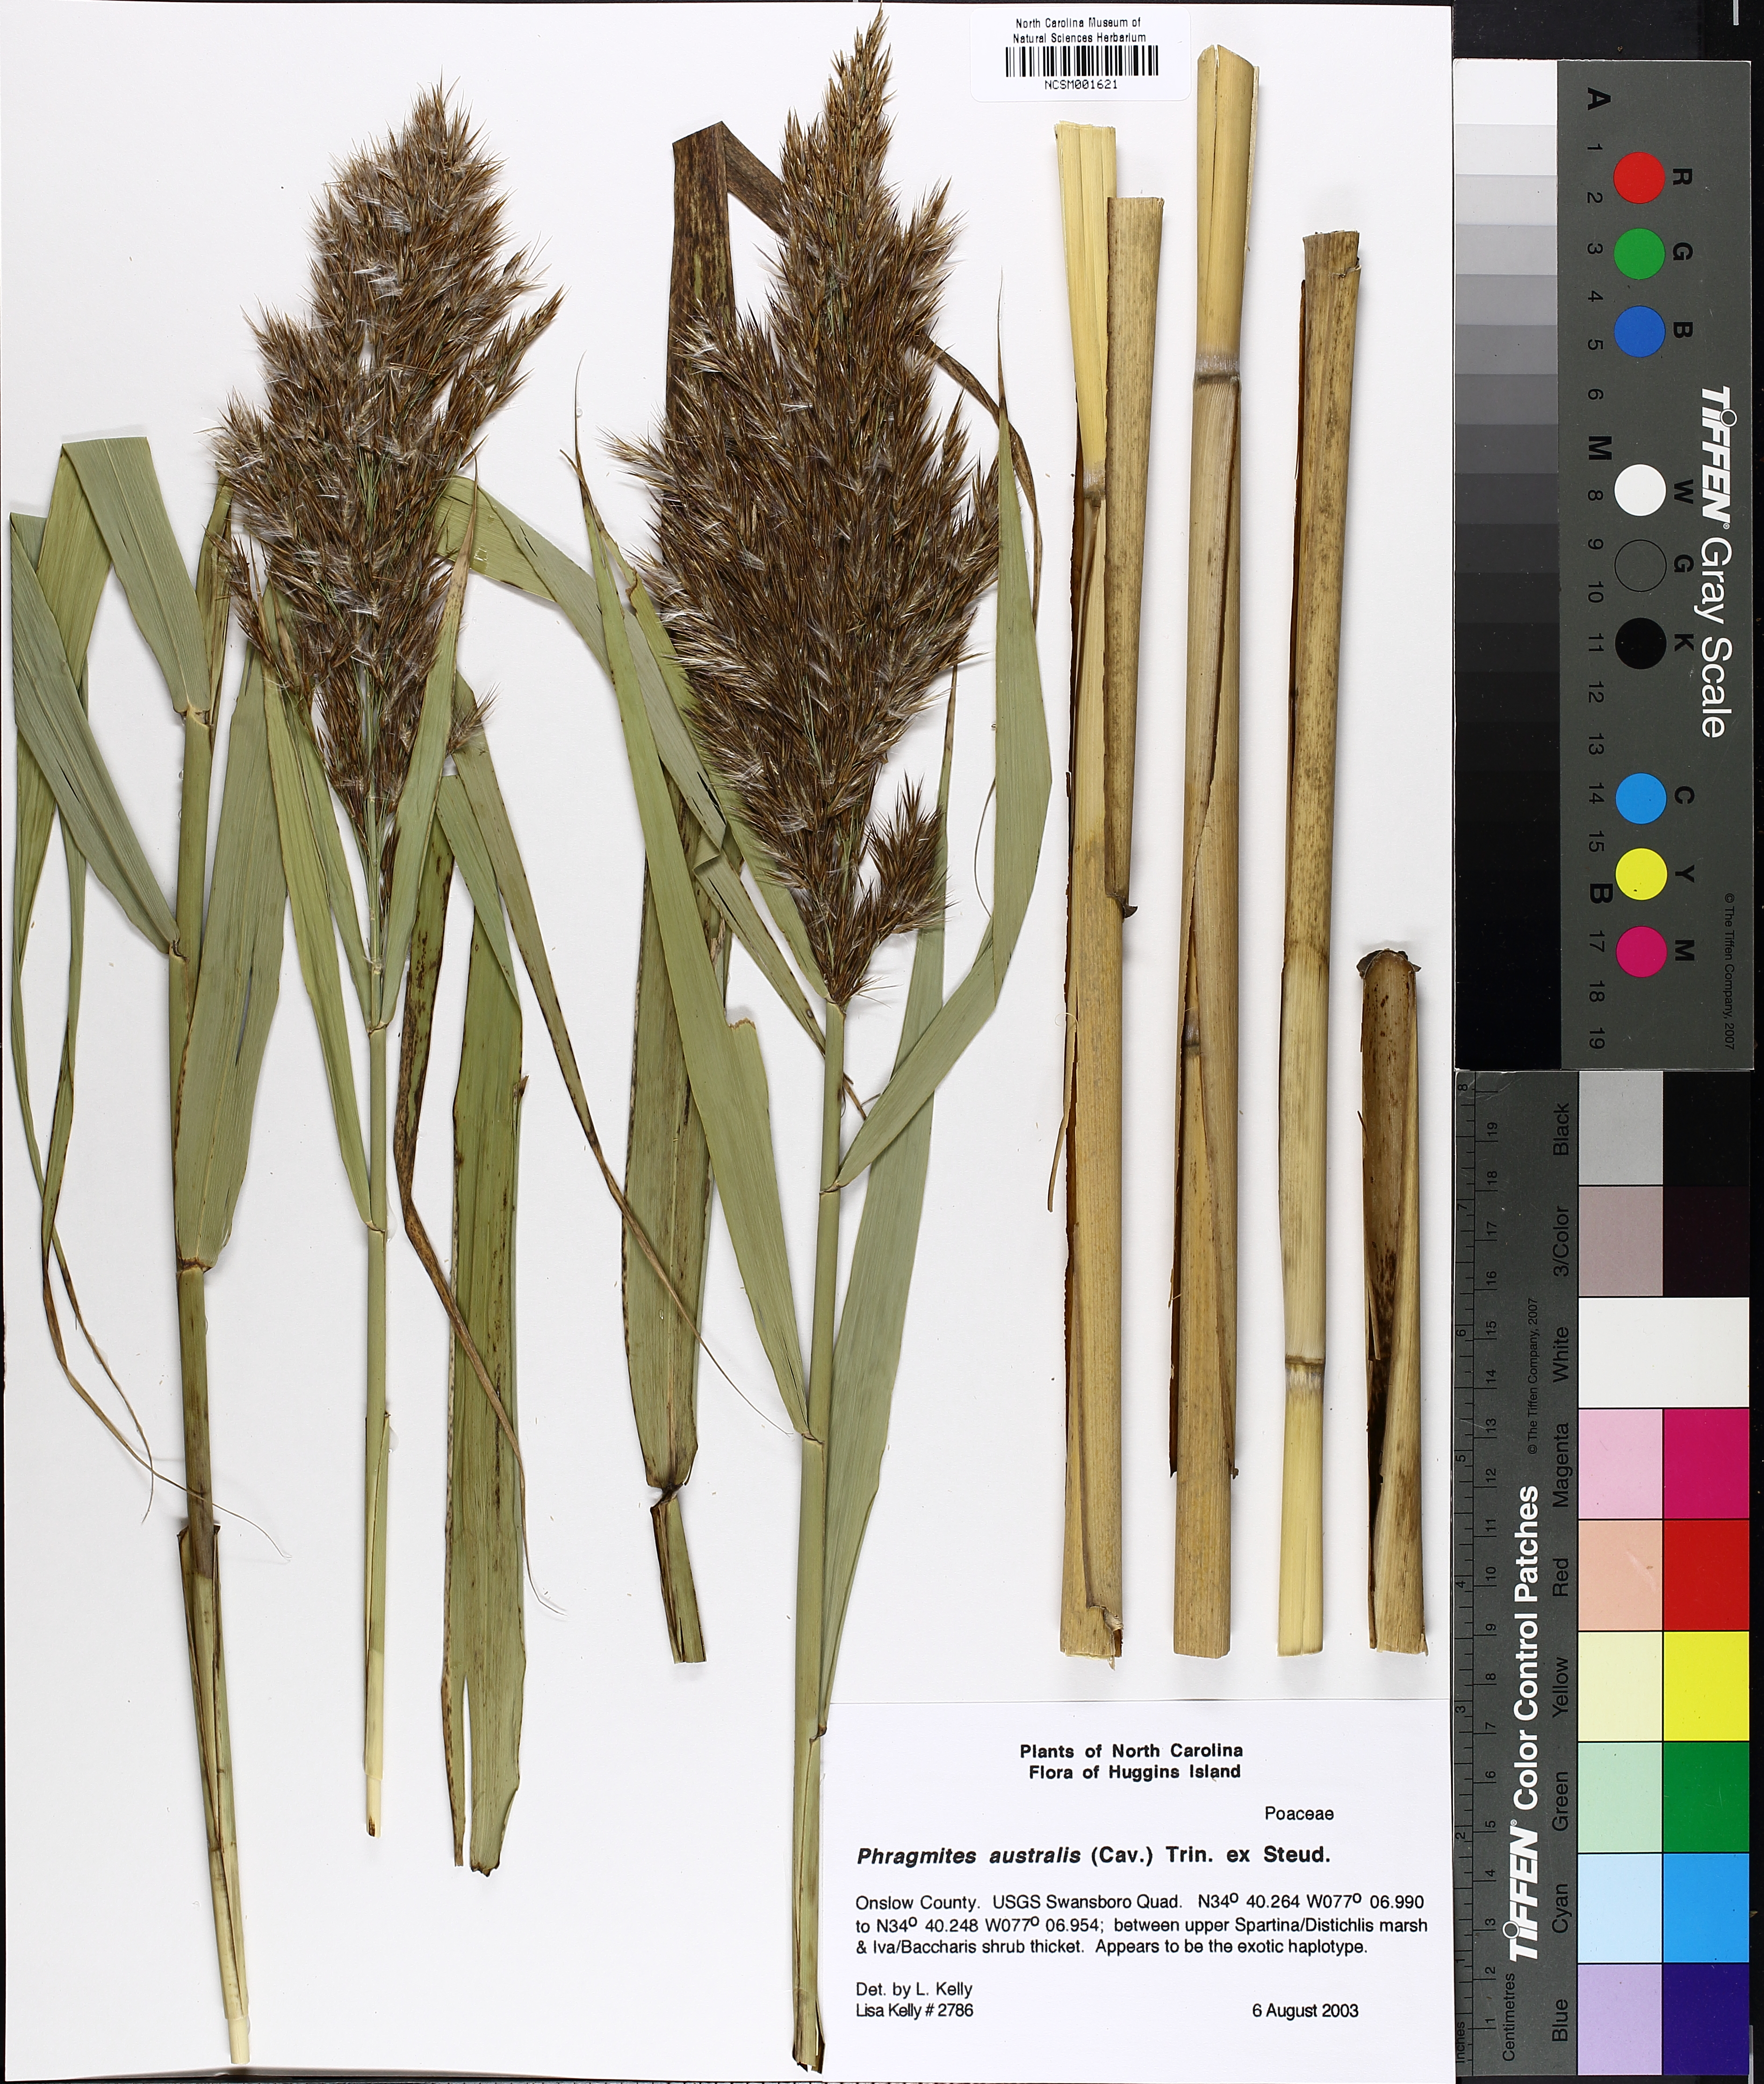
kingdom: Plantae
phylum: Tracheophyta
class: Liliopsida
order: Poales
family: Poaceae
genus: Phragmites
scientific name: Phragmites australis
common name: Common reed
